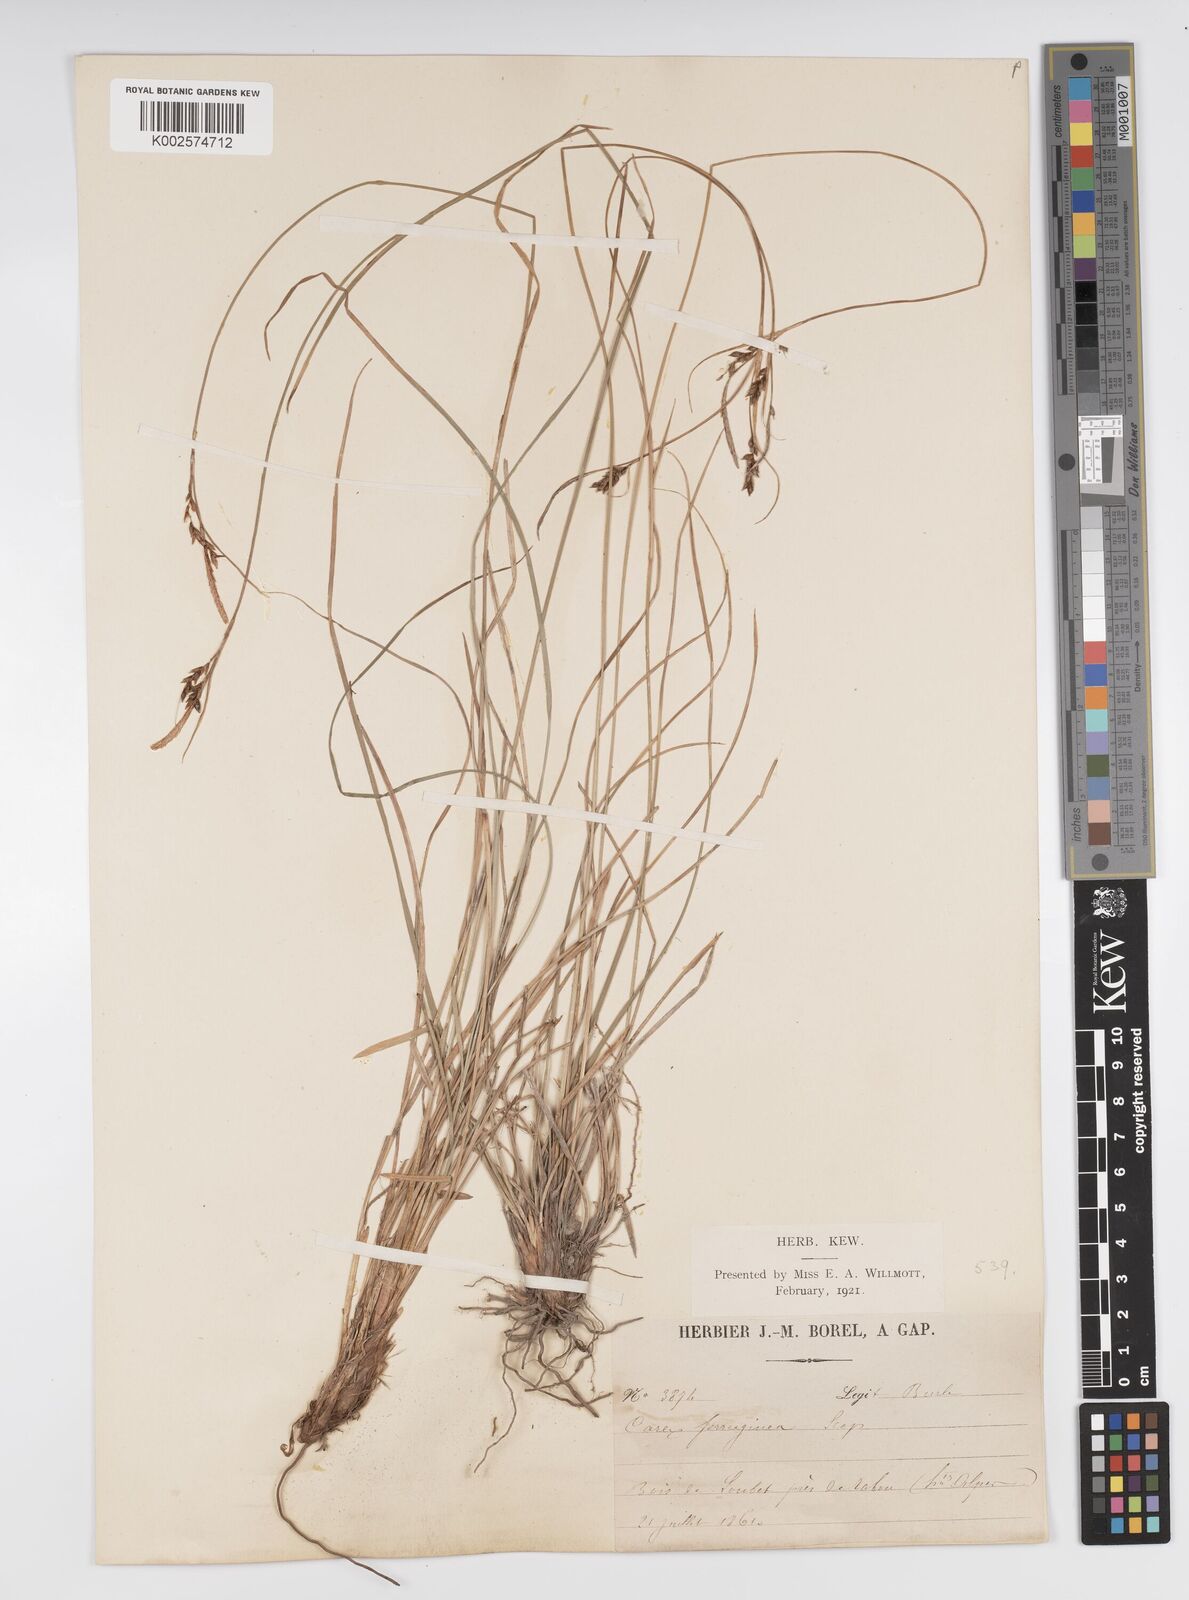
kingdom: Plantae
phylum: Tracheophyta
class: Liliopsida
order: Poales
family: Cyperaceae
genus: Carex
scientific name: Carex ferruginea
